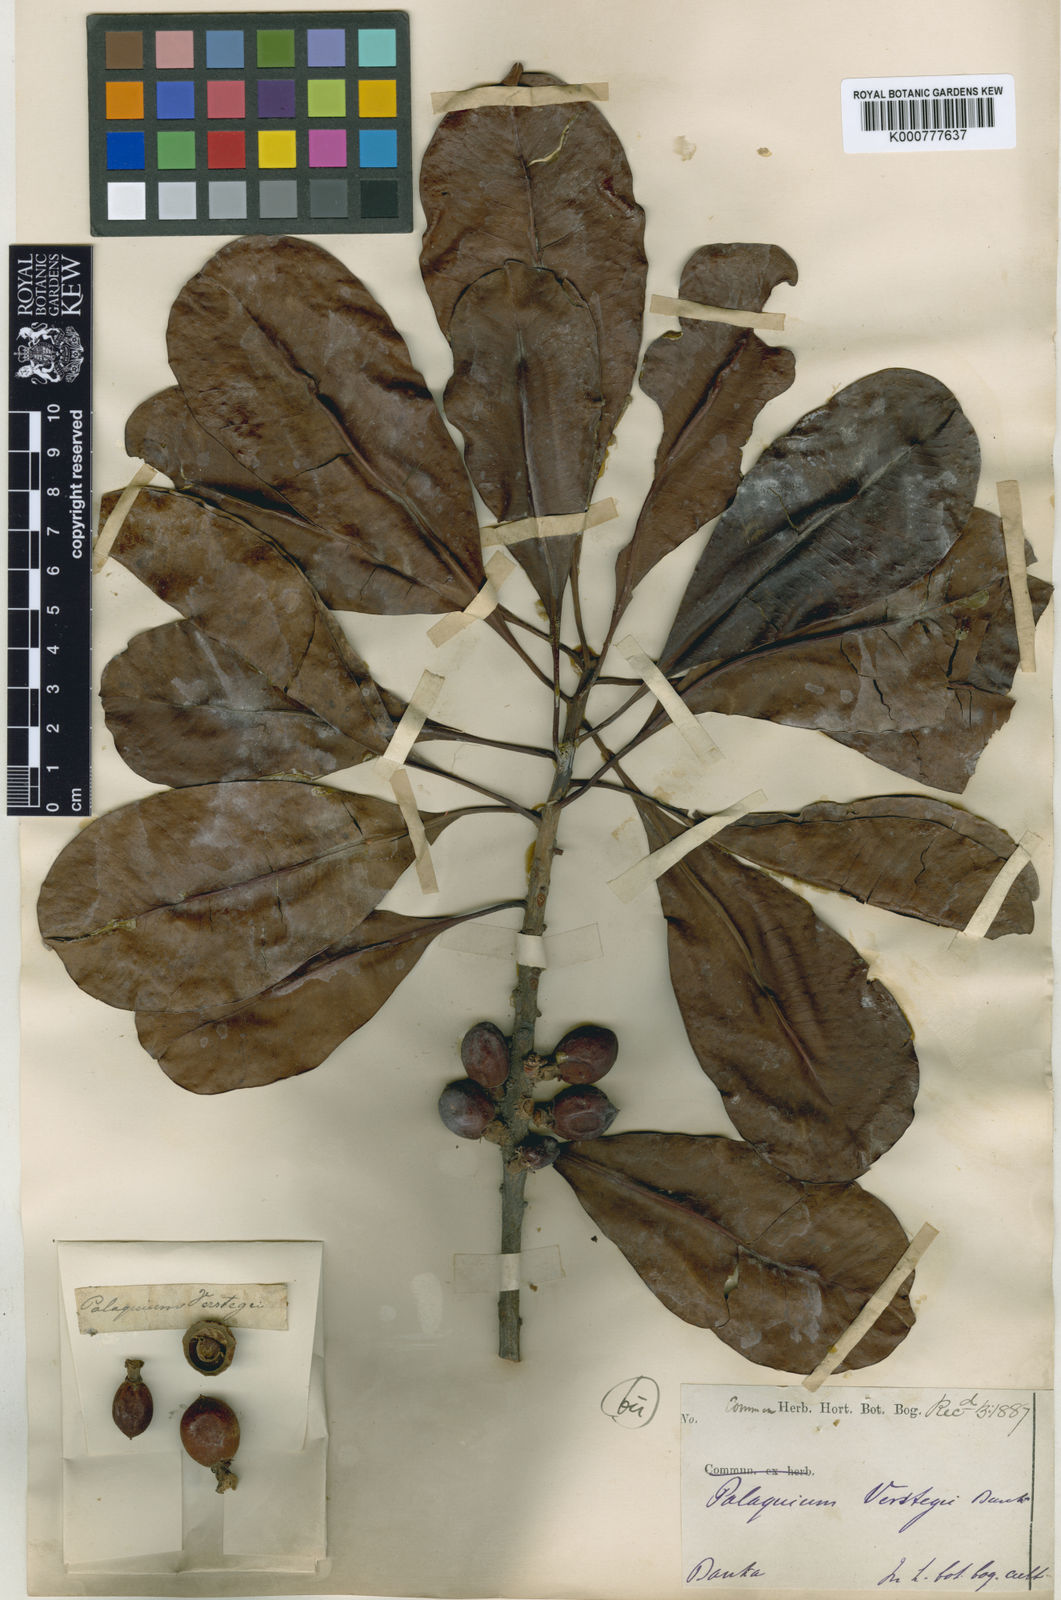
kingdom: Plantae
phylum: Tracheophyta
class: Magnoliopsida
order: Ericales
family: Sapotaceae
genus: Palaquium
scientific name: Palaquium rostratum
